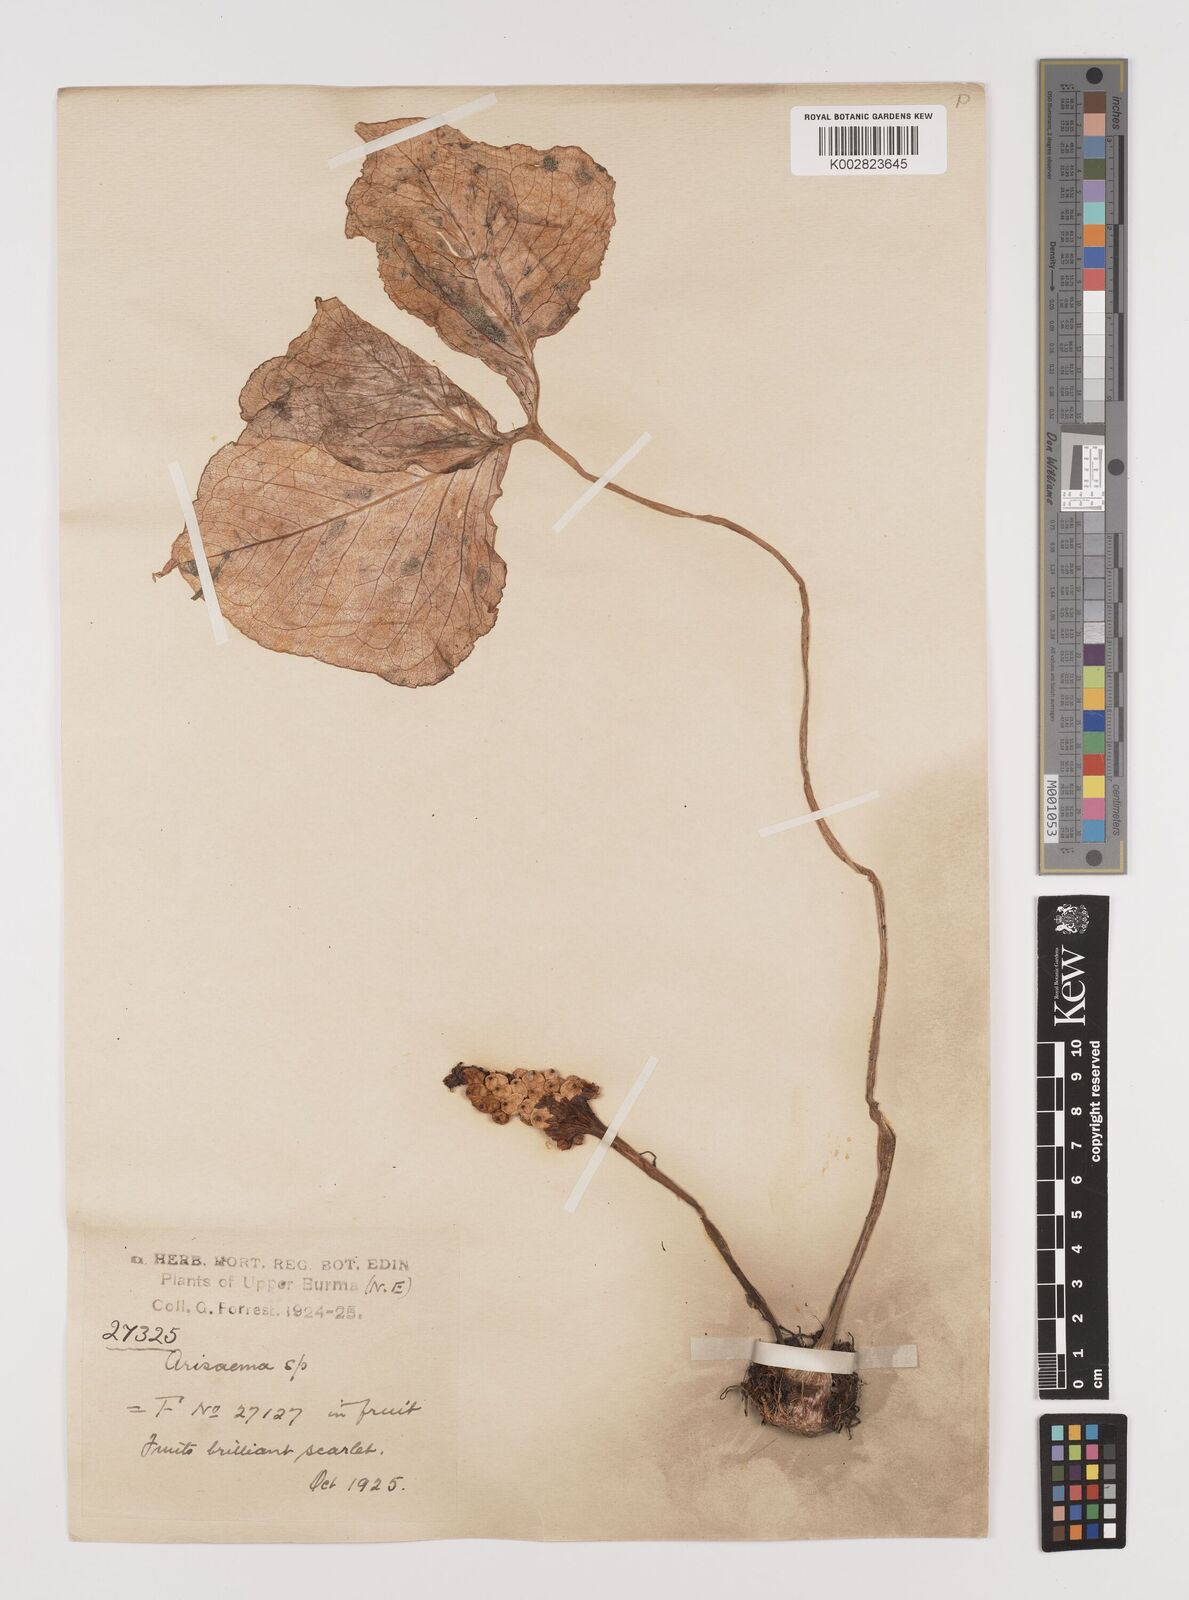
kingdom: Plantae
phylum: Tracheophyta
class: Liliopsida
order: Alismatales
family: Araceae
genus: Arisaema
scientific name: Arisaema
